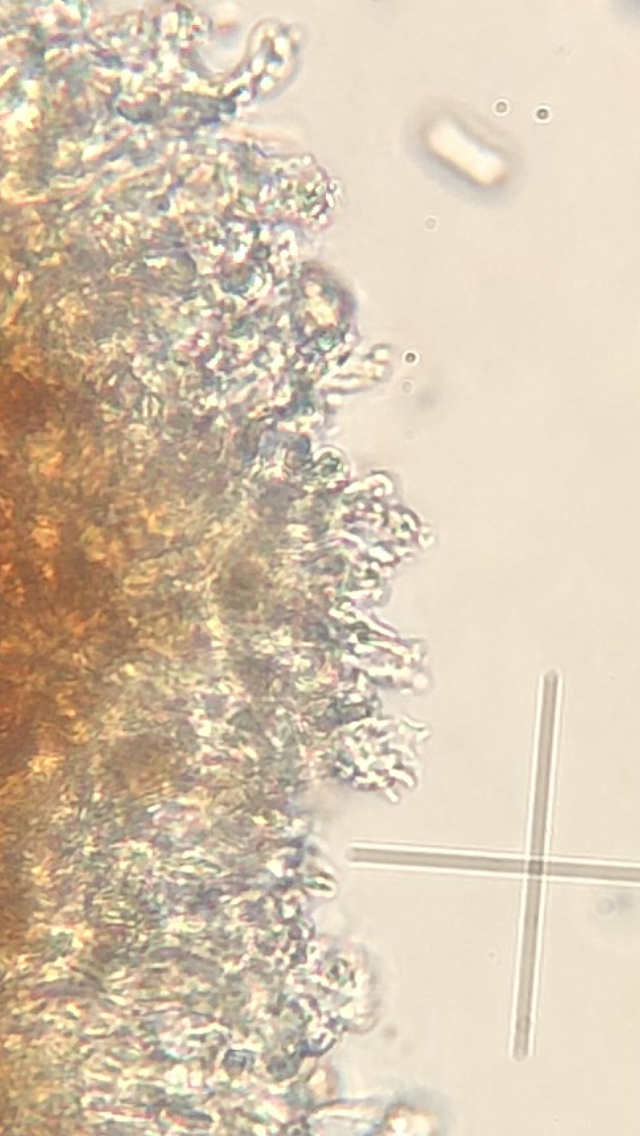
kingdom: Fungi
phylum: Basidiomycota
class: Agaricomycetes
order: Russulales
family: Peniophoraceae
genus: Peniophora
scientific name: Peniophora lycii
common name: grynet voksskind
